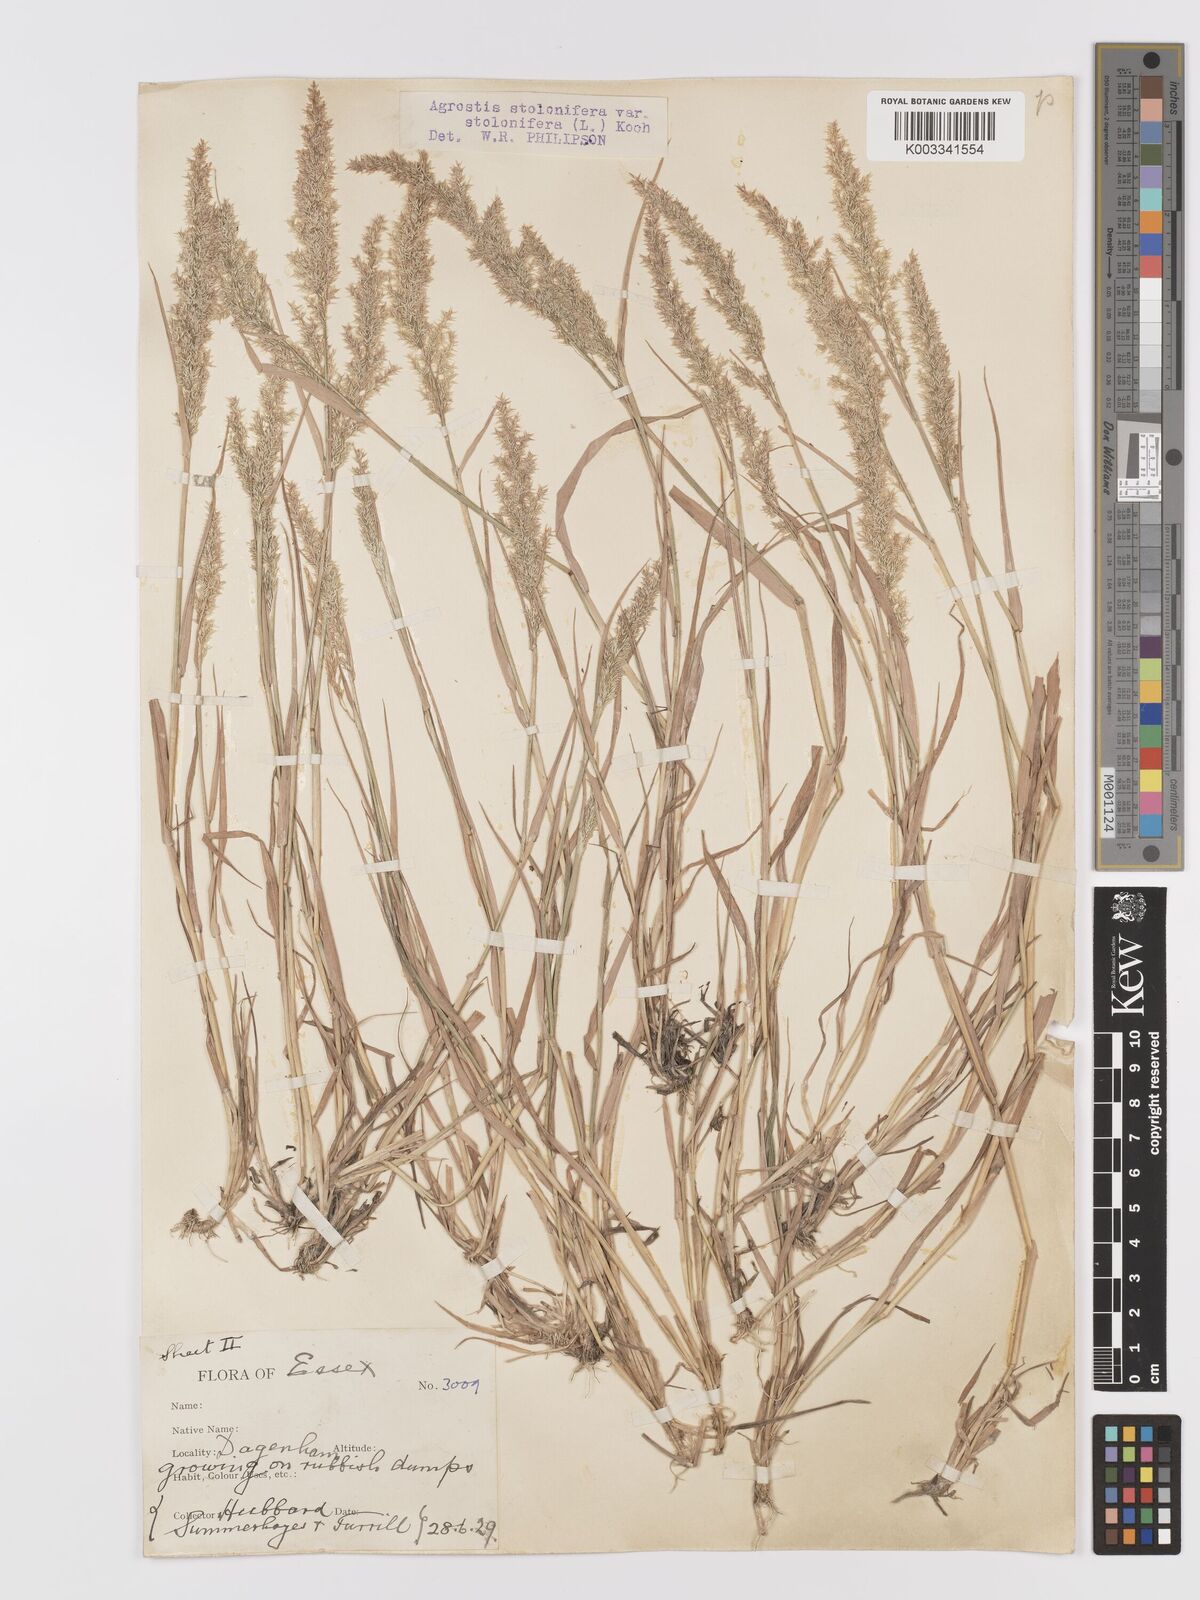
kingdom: Plantae
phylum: Tracheophyta
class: Liliopsida
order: Poales
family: Poaceae
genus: Agrostis
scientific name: Agrostis stolonifera
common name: Creeping bentgrass
